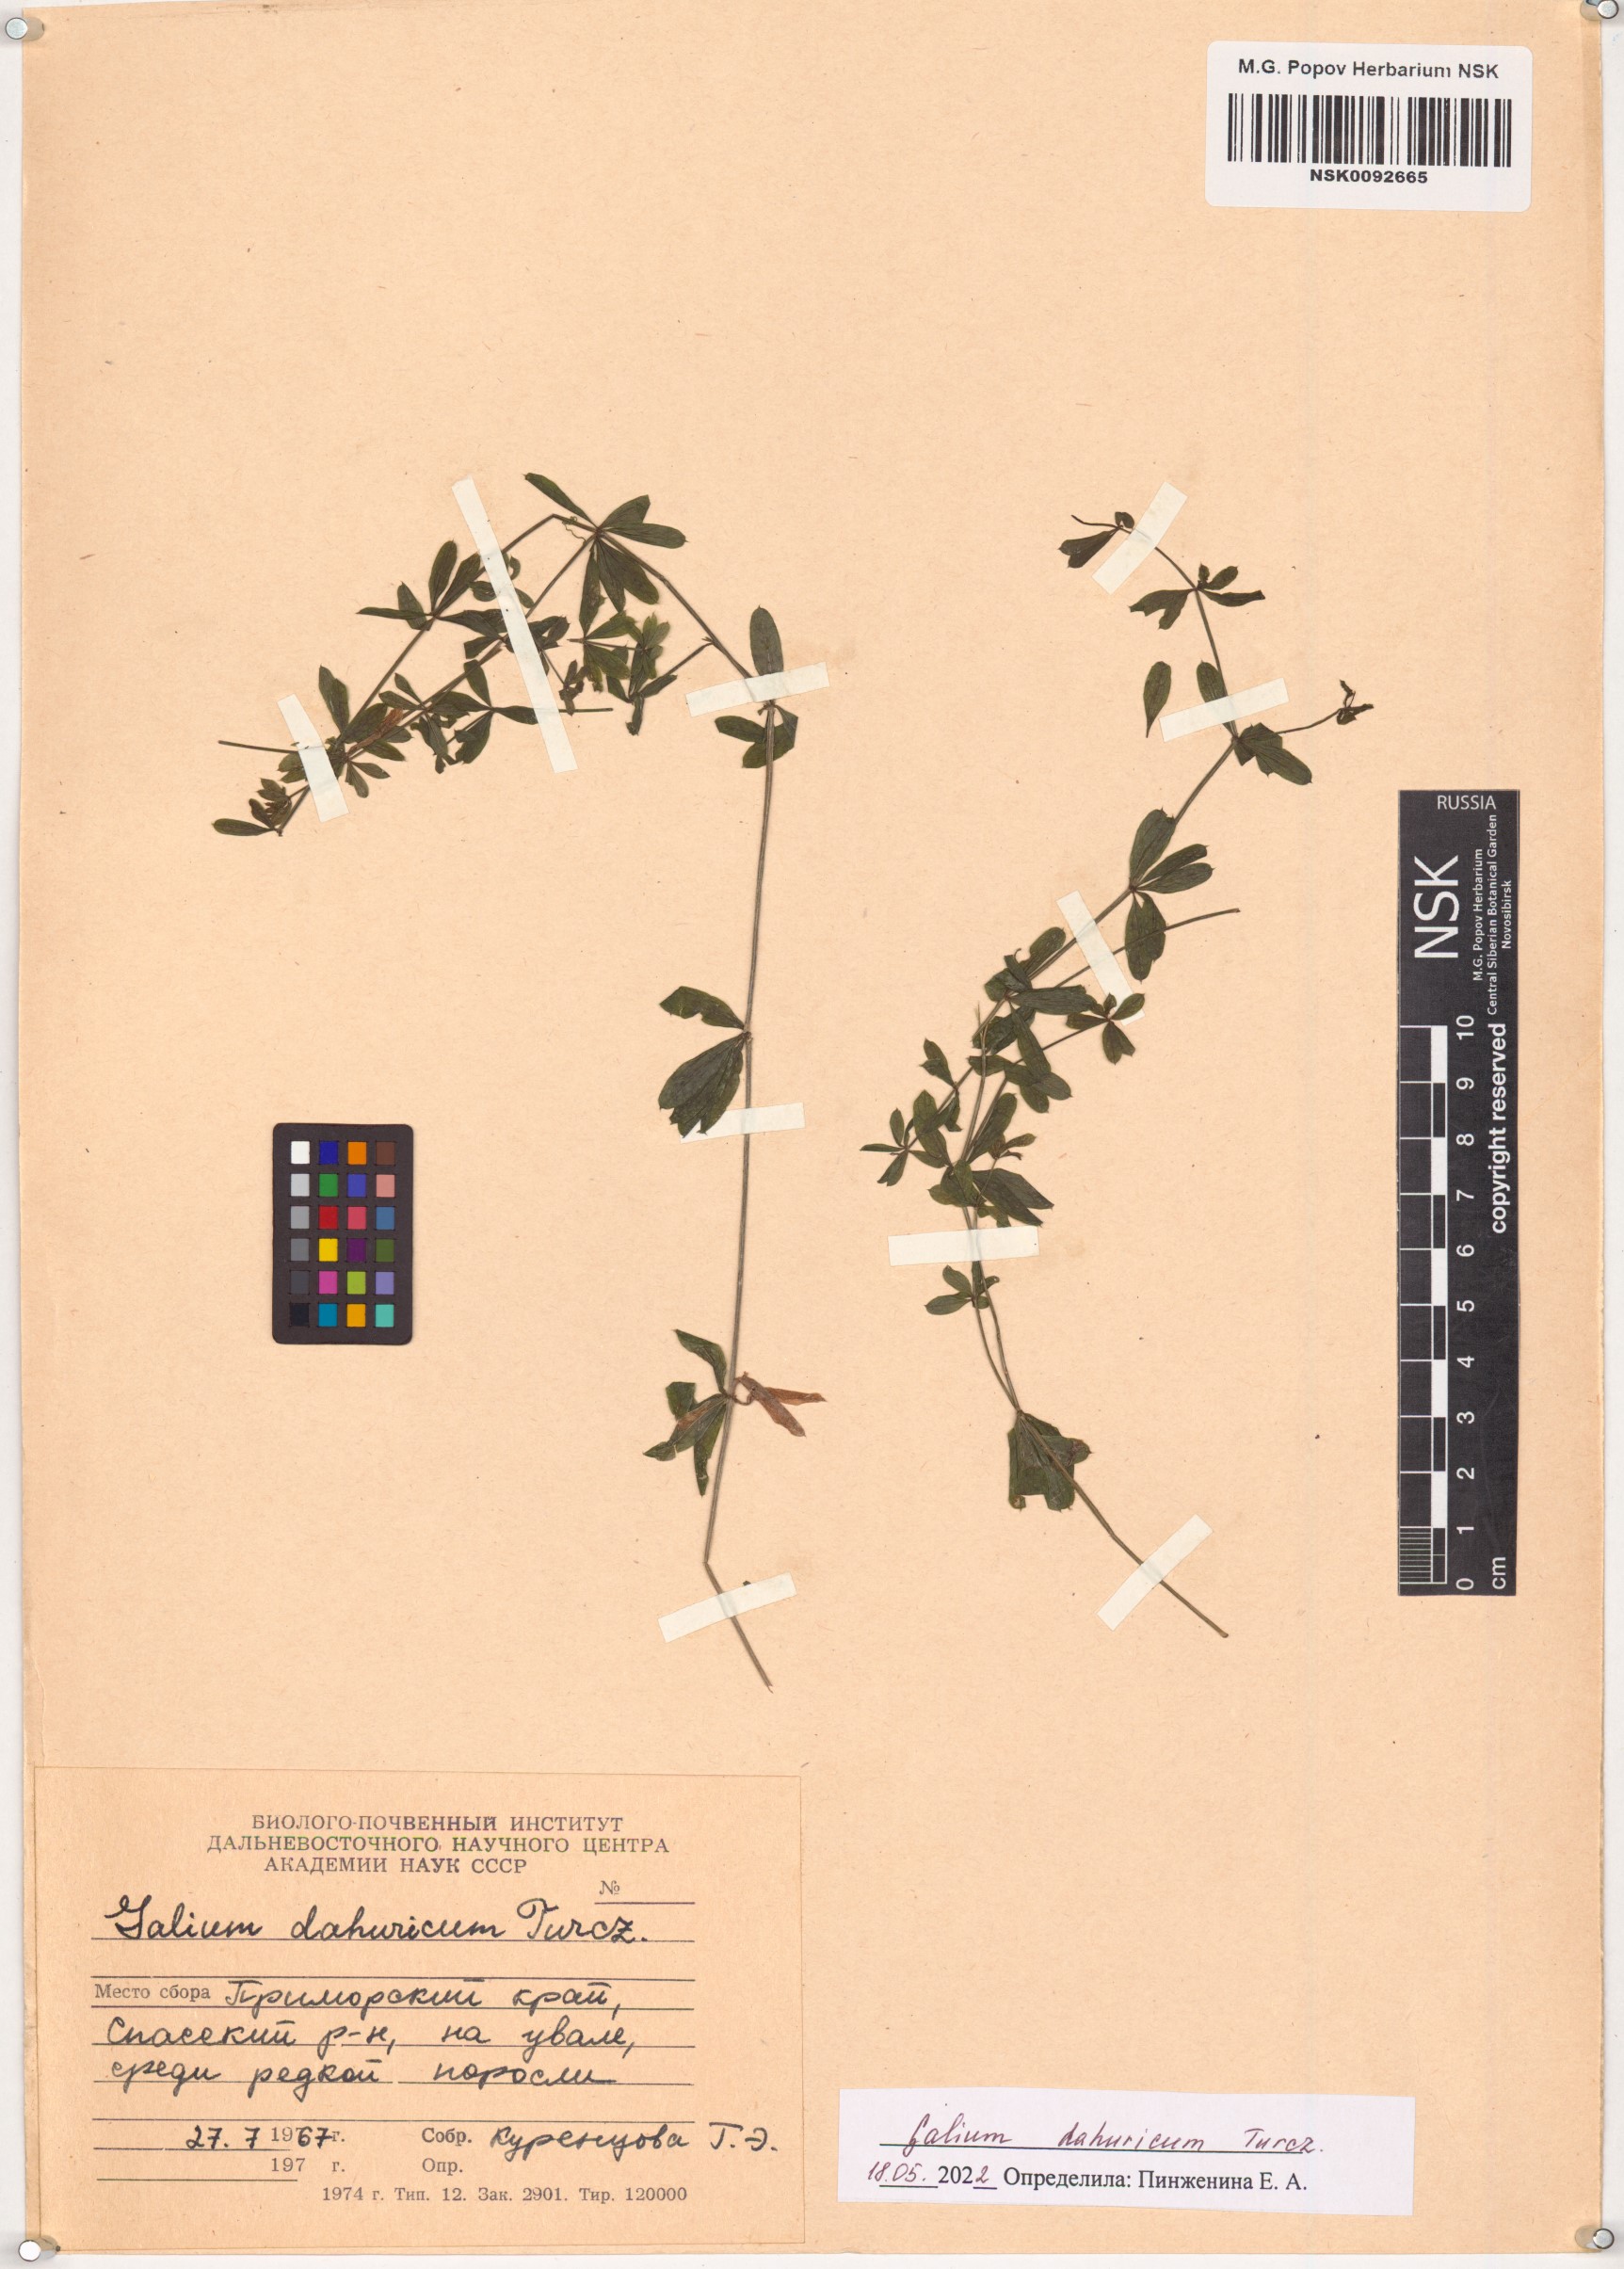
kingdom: Plantae
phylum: Tracheophyta
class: Magnoliopsida
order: Gentianales
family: Rubiaceae
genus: Galium
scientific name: Galium dahuricum
